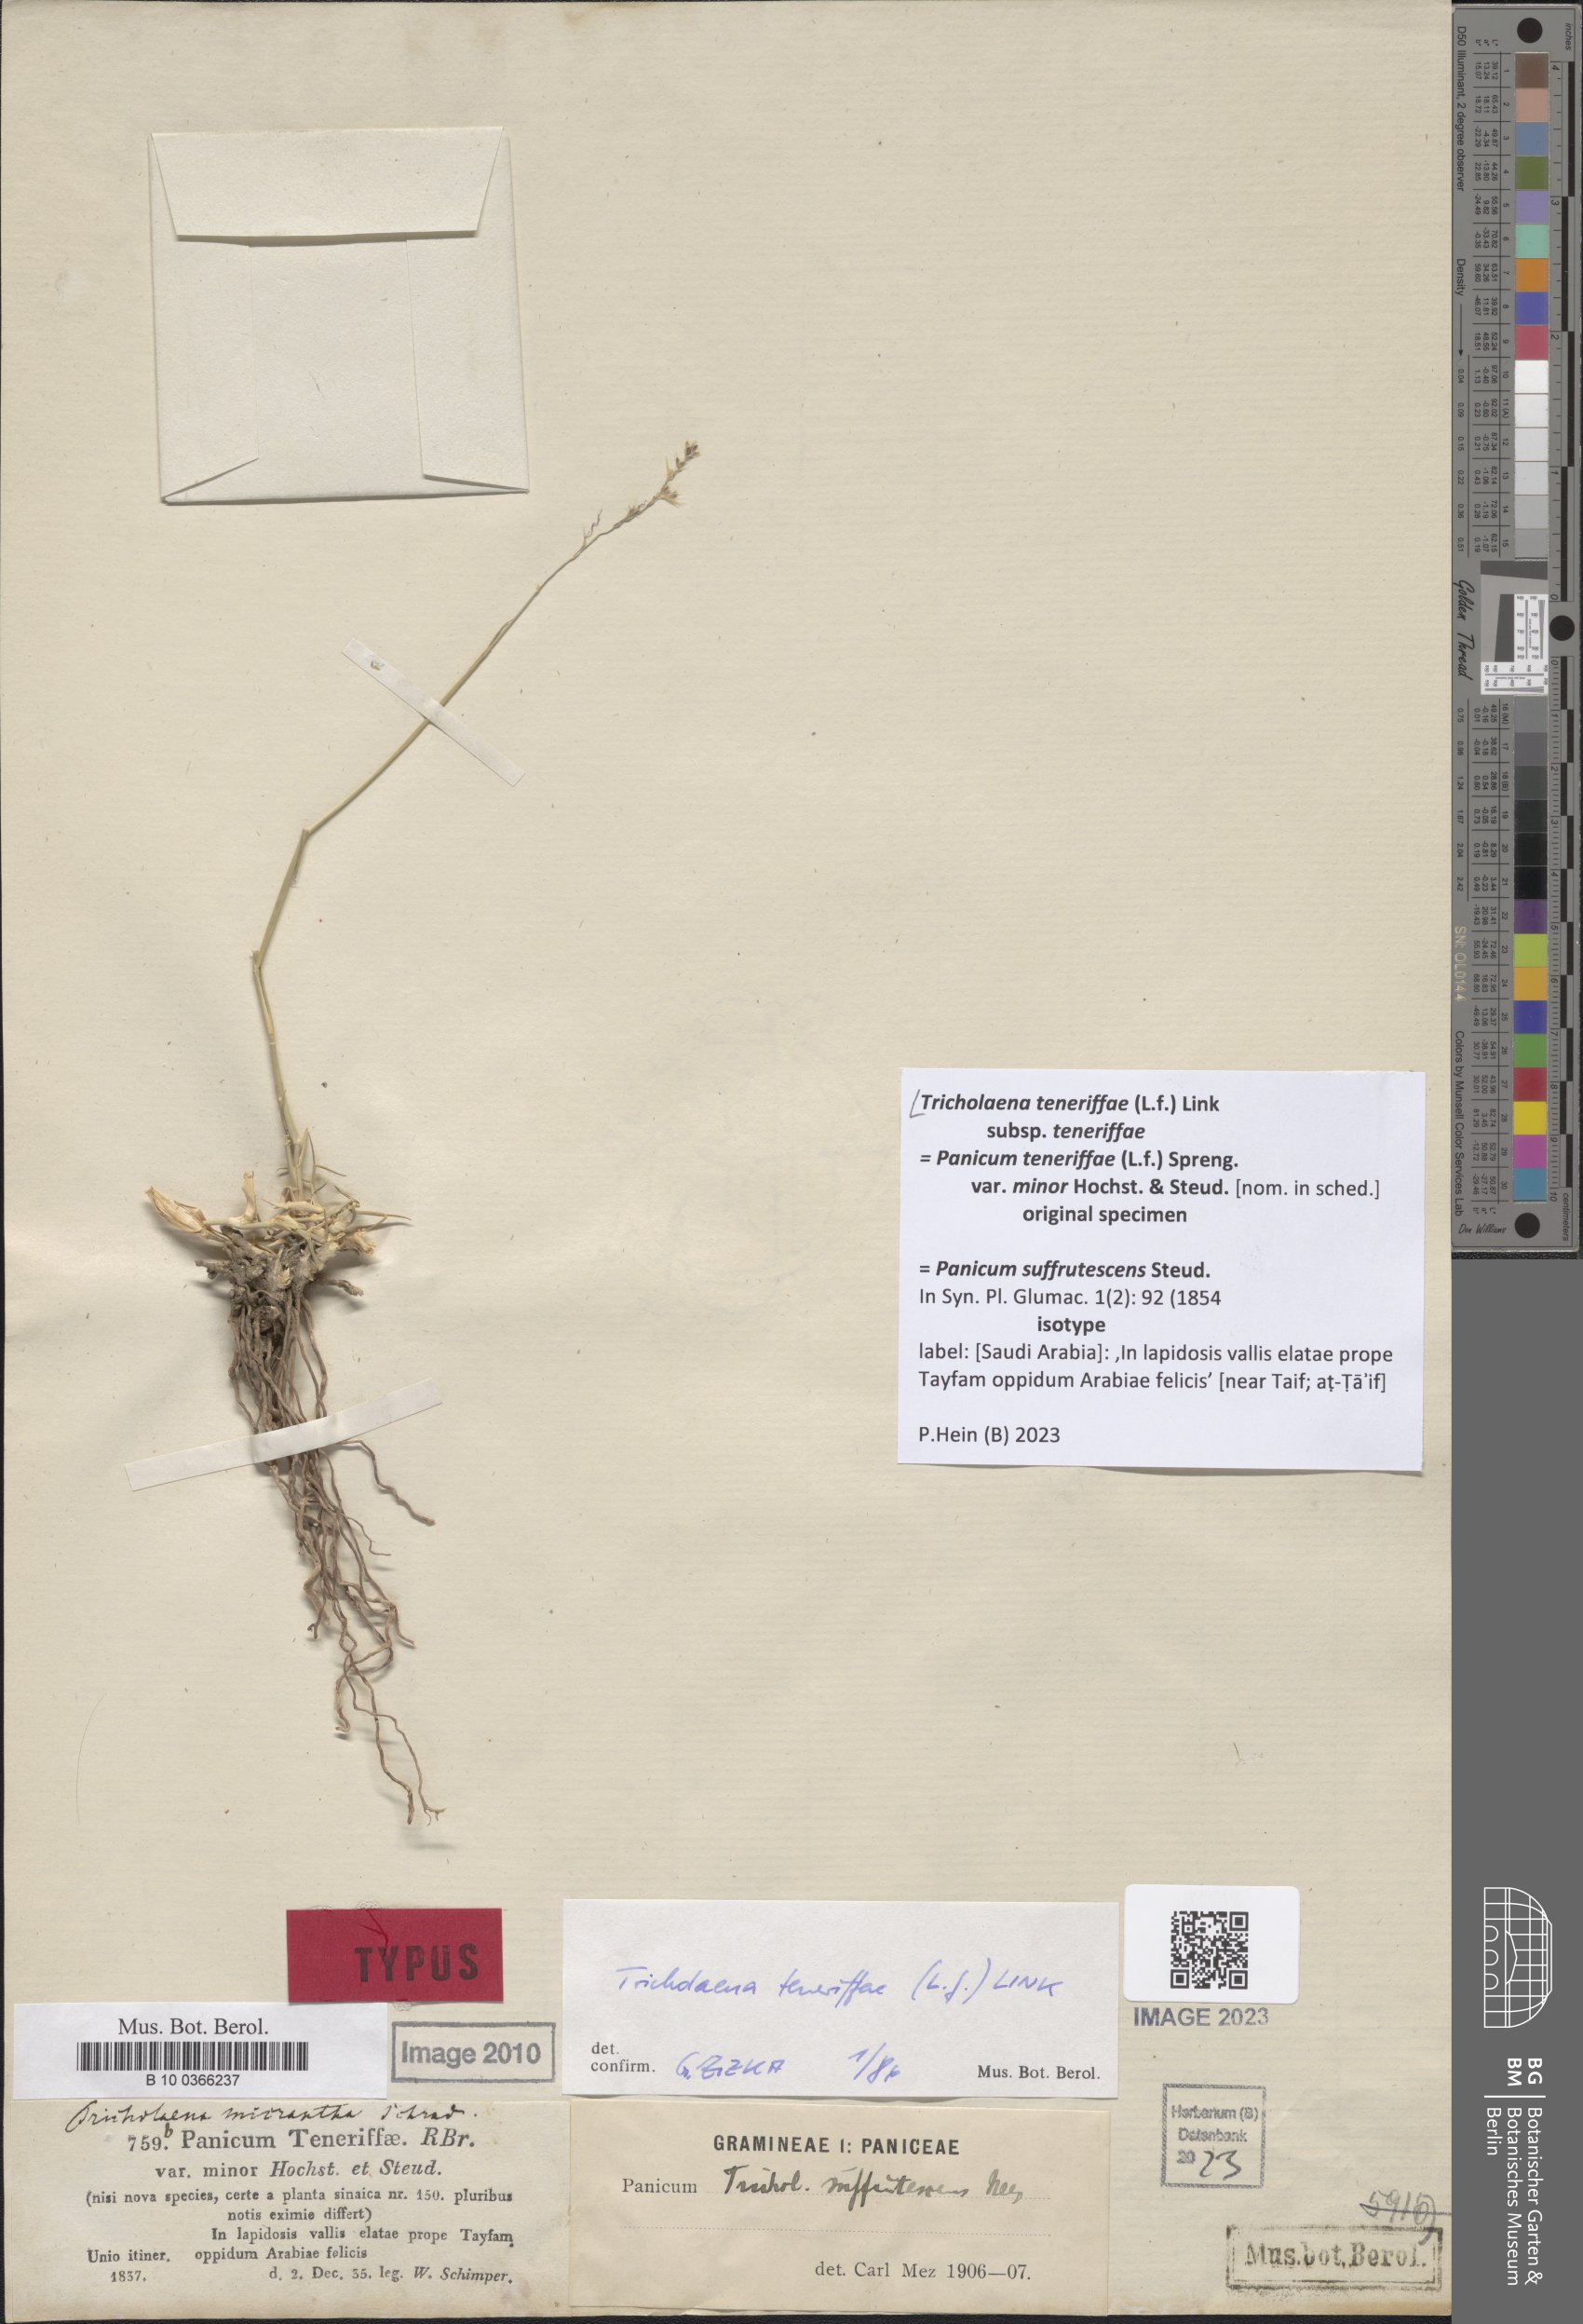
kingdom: Plantae
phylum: Tracheophyta
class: Liliopsida
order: Poales
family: Poaceae
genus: Tricholaena
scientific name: Tricholaena teneriffae
